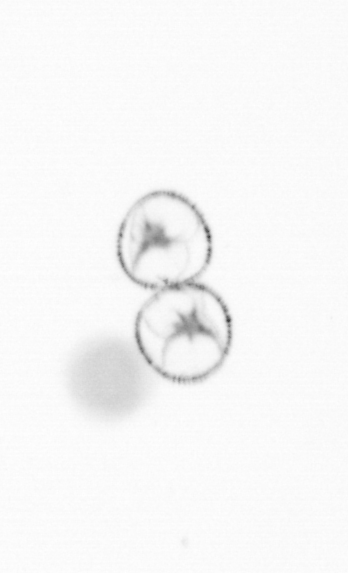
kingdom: Chromista
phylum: Myzozoa
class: Dinophyceae
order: Noctilucales
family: Noctilucaceae
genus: Noctiluca
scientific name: Noctiluca scintillans
